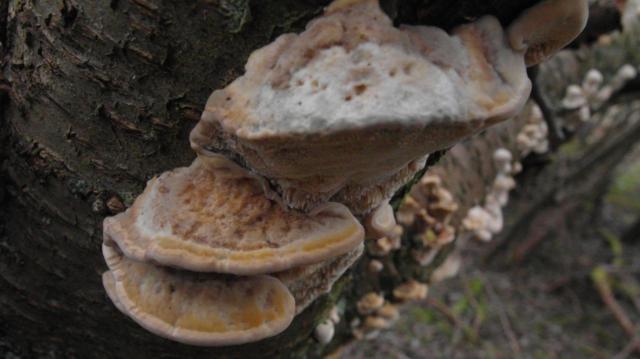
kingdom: Fungi
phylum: Basidiomycota
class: Agaricomycetes
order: Polyporales
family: Polyporaceae
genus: Trametes
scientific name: Trametes ochracea
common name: bæltet læderporesvamp
